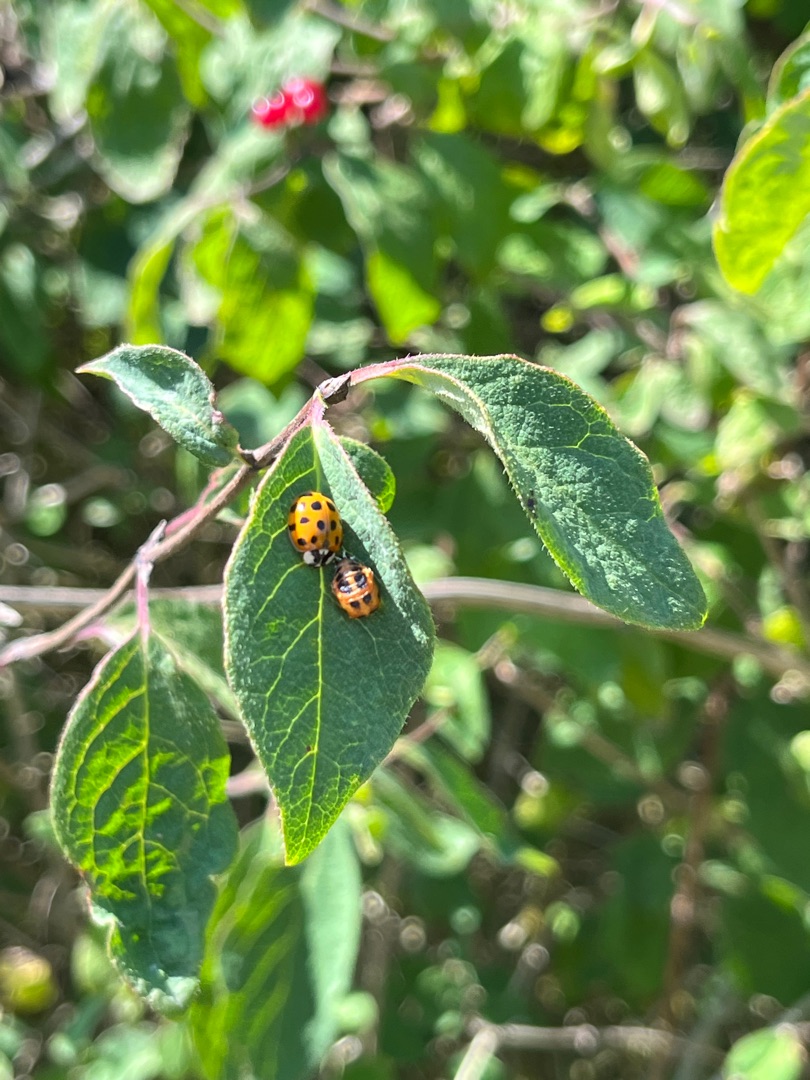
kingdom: Animalia
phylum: Arthropoda
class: Insecta
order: Coleoptera
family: Coccinellidae
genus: Harmonia
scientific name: Harmonia axyridis
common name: Harlekinmariehøne
